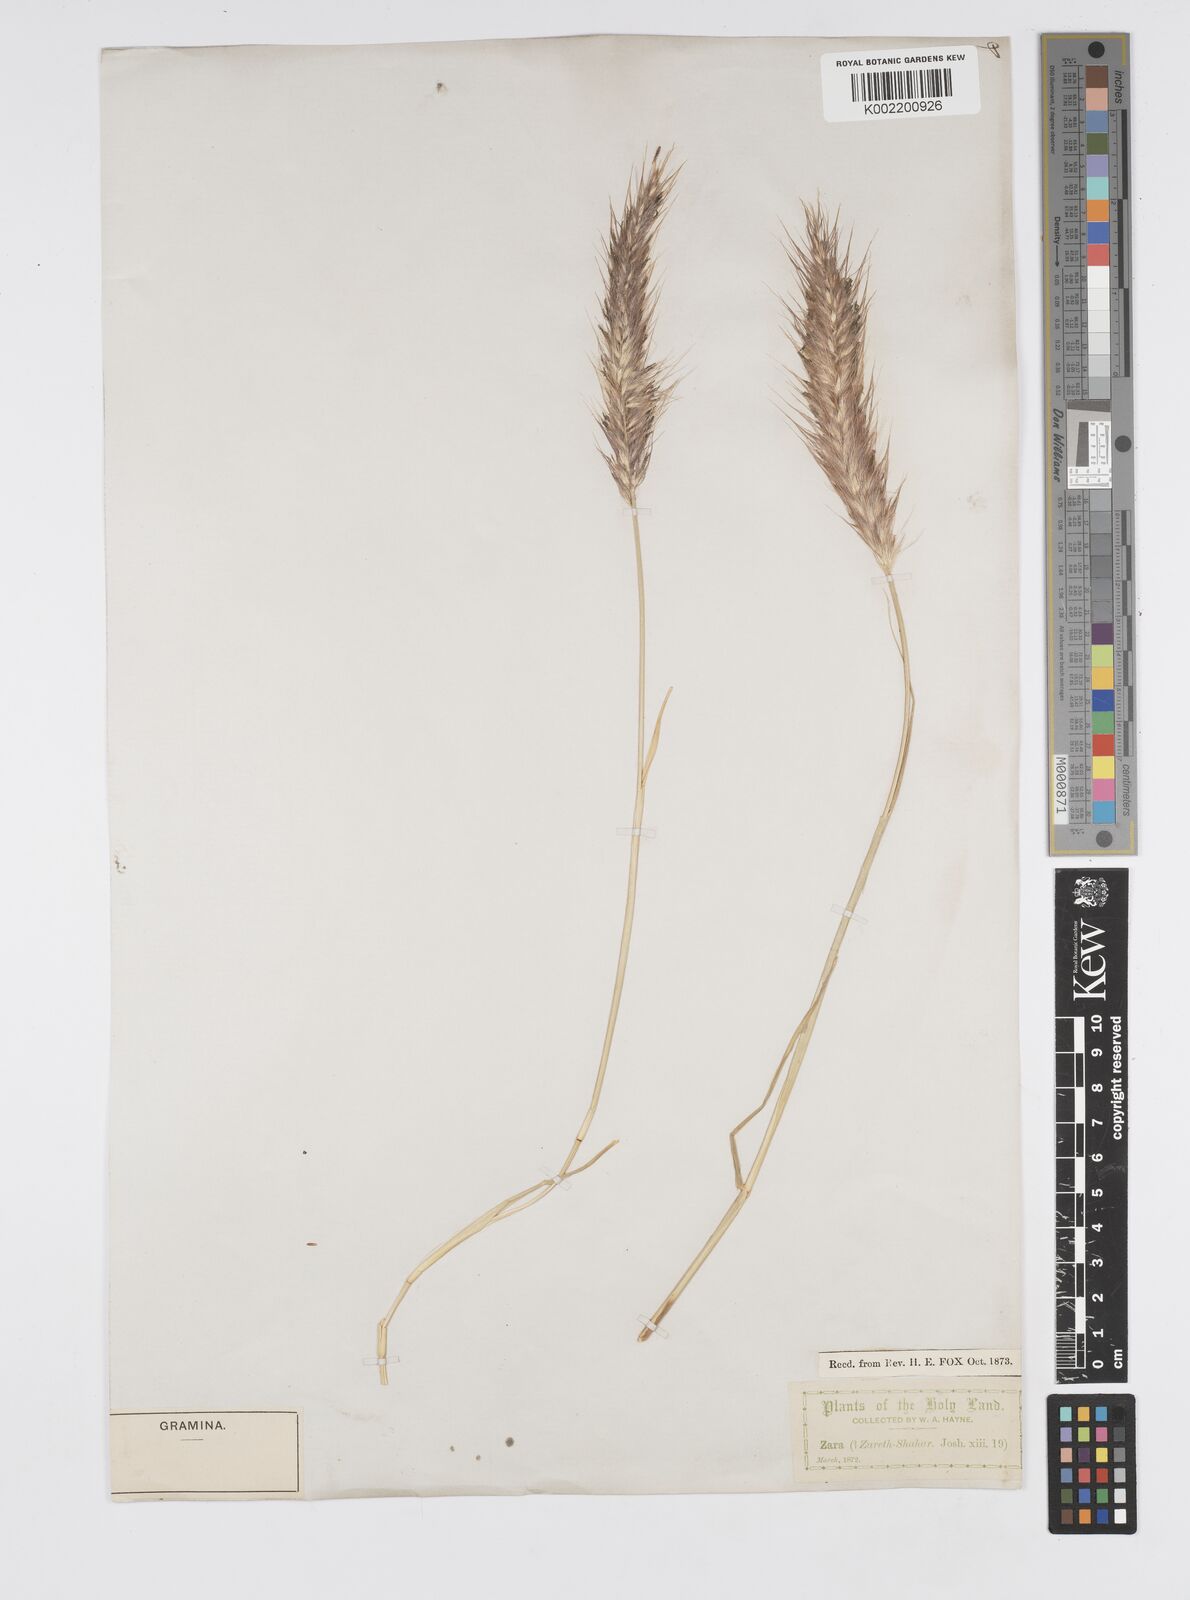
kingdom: Plantae
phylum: Tracheophyta
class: Liliopsida
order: Poales
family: Poaceae
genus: Cenchrus
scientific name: Cenchrus setaceus
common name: Crimson fountaingrass
